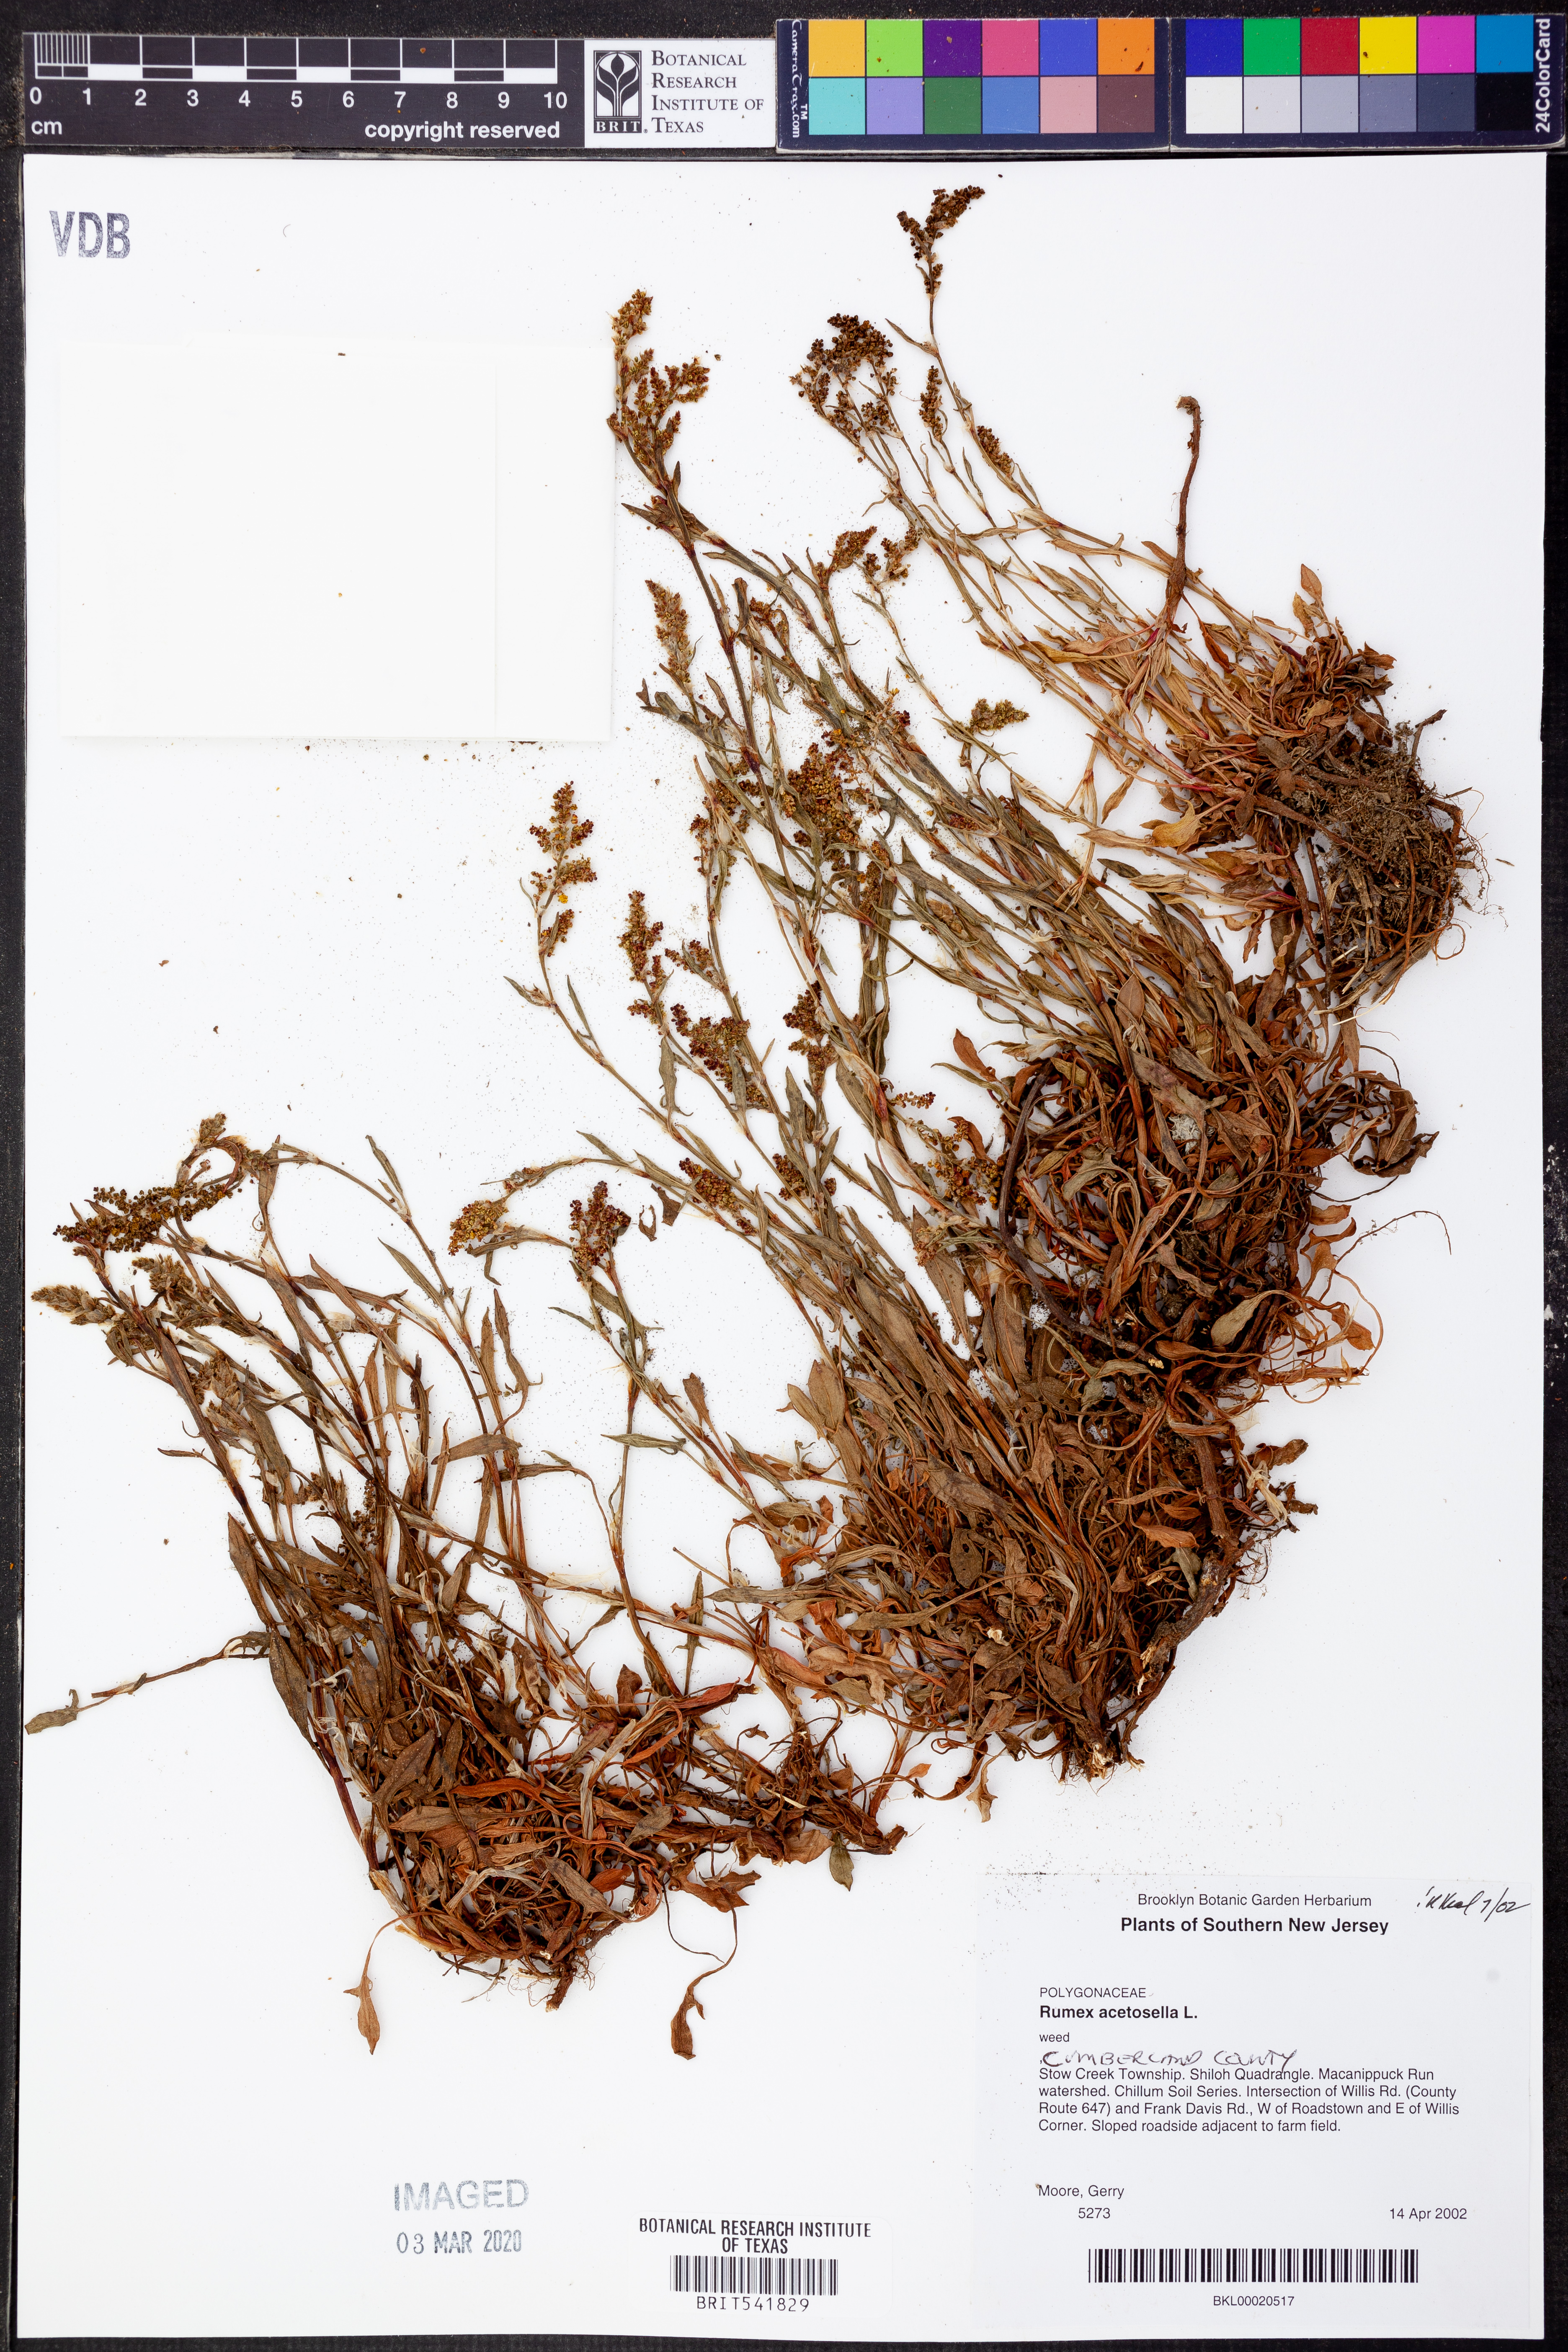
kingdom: Plantae
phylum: Tracheophyta
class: Magnoliopsida
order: Caryophyllales
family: Polygonaceae
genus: Rumex
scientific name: Rumex acetosella
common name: Common sheep sorrel
